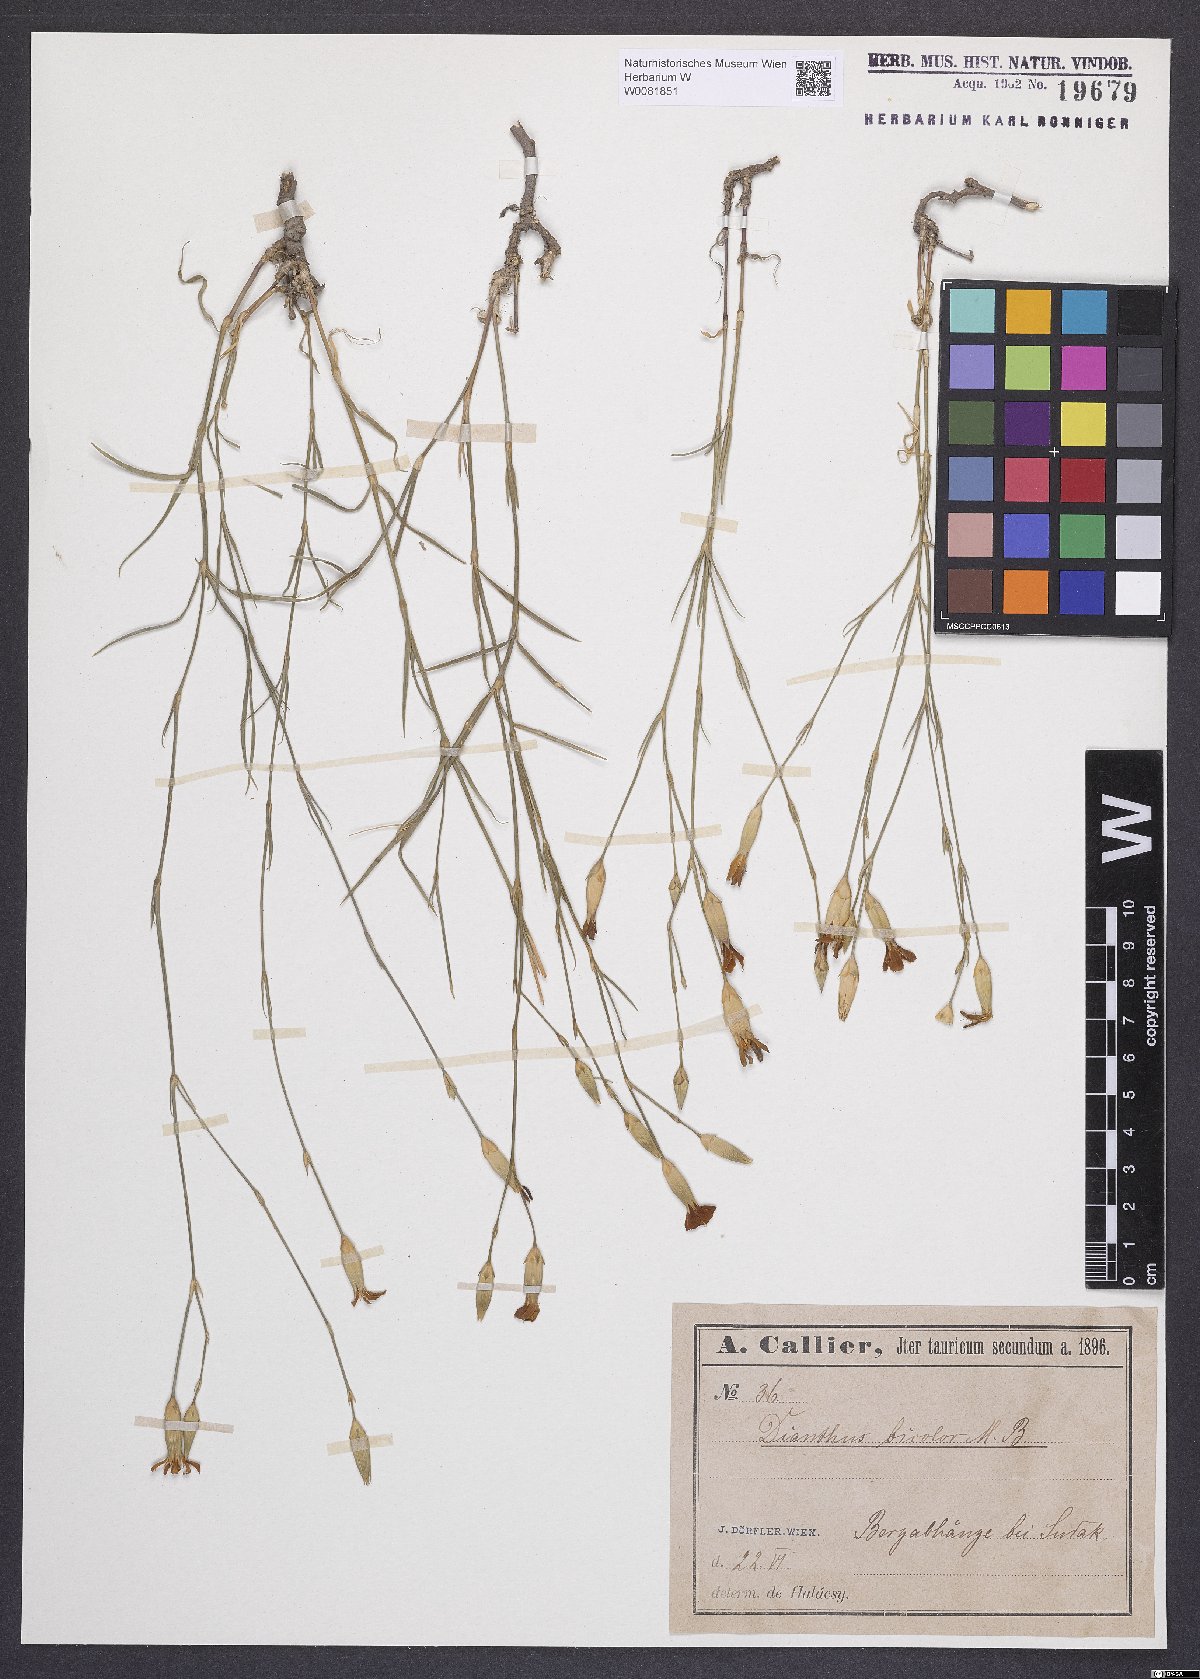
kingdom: Plantae
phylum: Tracheophyta
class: Magnoliopsida
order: Caryophyllales
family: Caryophyllaceae
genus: Dianthus
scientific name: Dianthus campestris
